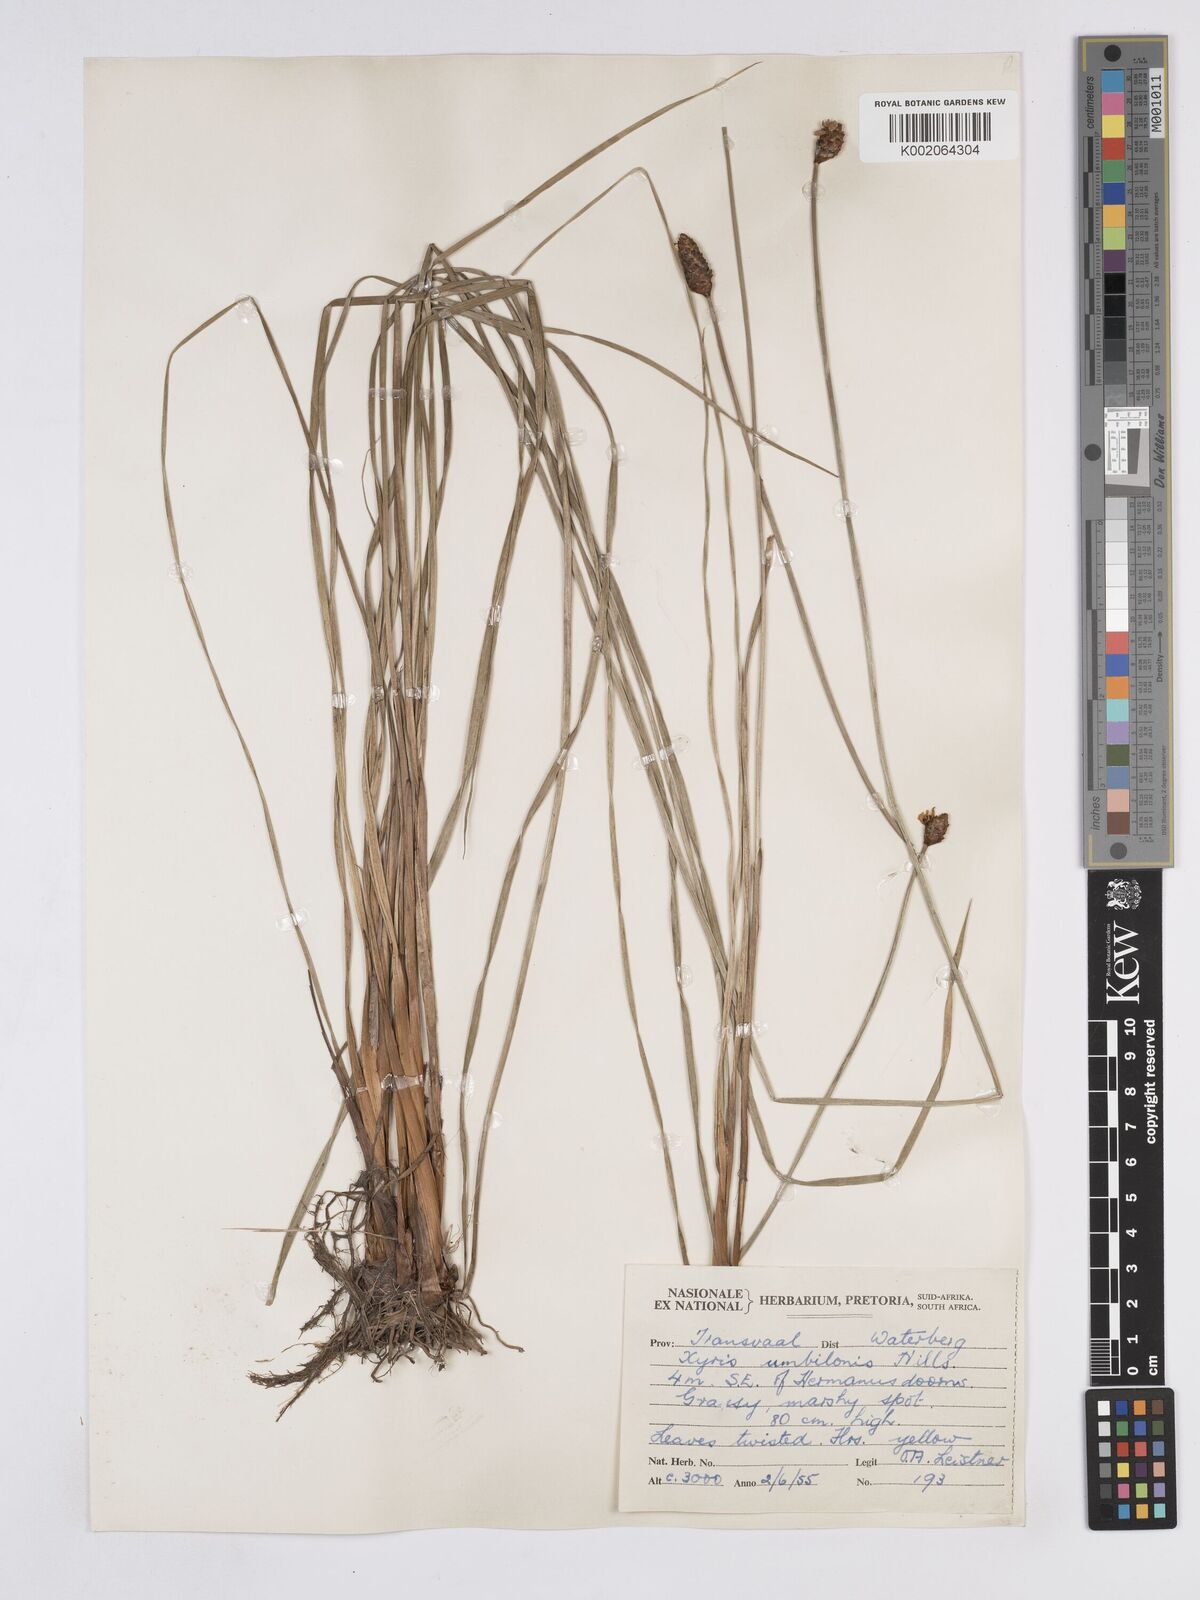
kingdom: Plantae
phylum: Tracheophyta
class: Liliopsida
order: Poales
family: Xyridaceae
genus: Xyris
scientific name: Xyris congensis
